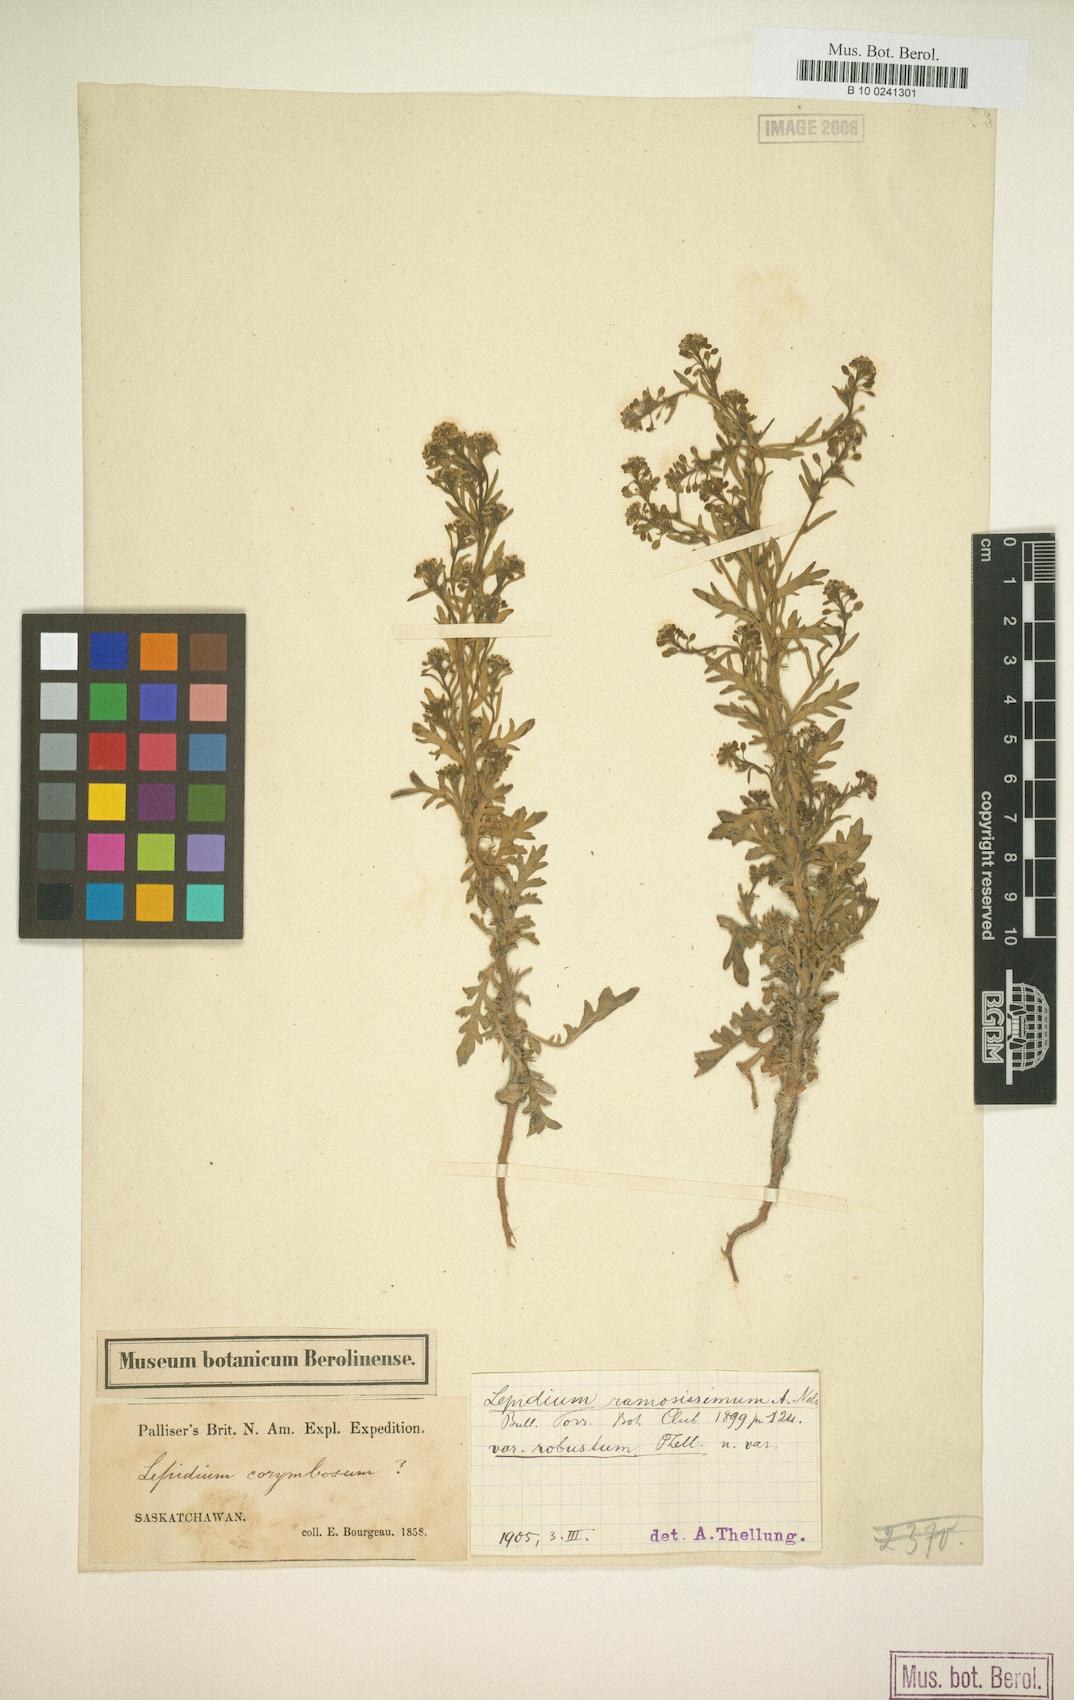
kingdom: Plantae
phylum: Tracheophyta
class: Magnoliopsida
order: Brassicales
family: Brassicaceae
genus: Lepidium
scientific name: Lepidium ramosissimum
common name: Bushy peppergrass
